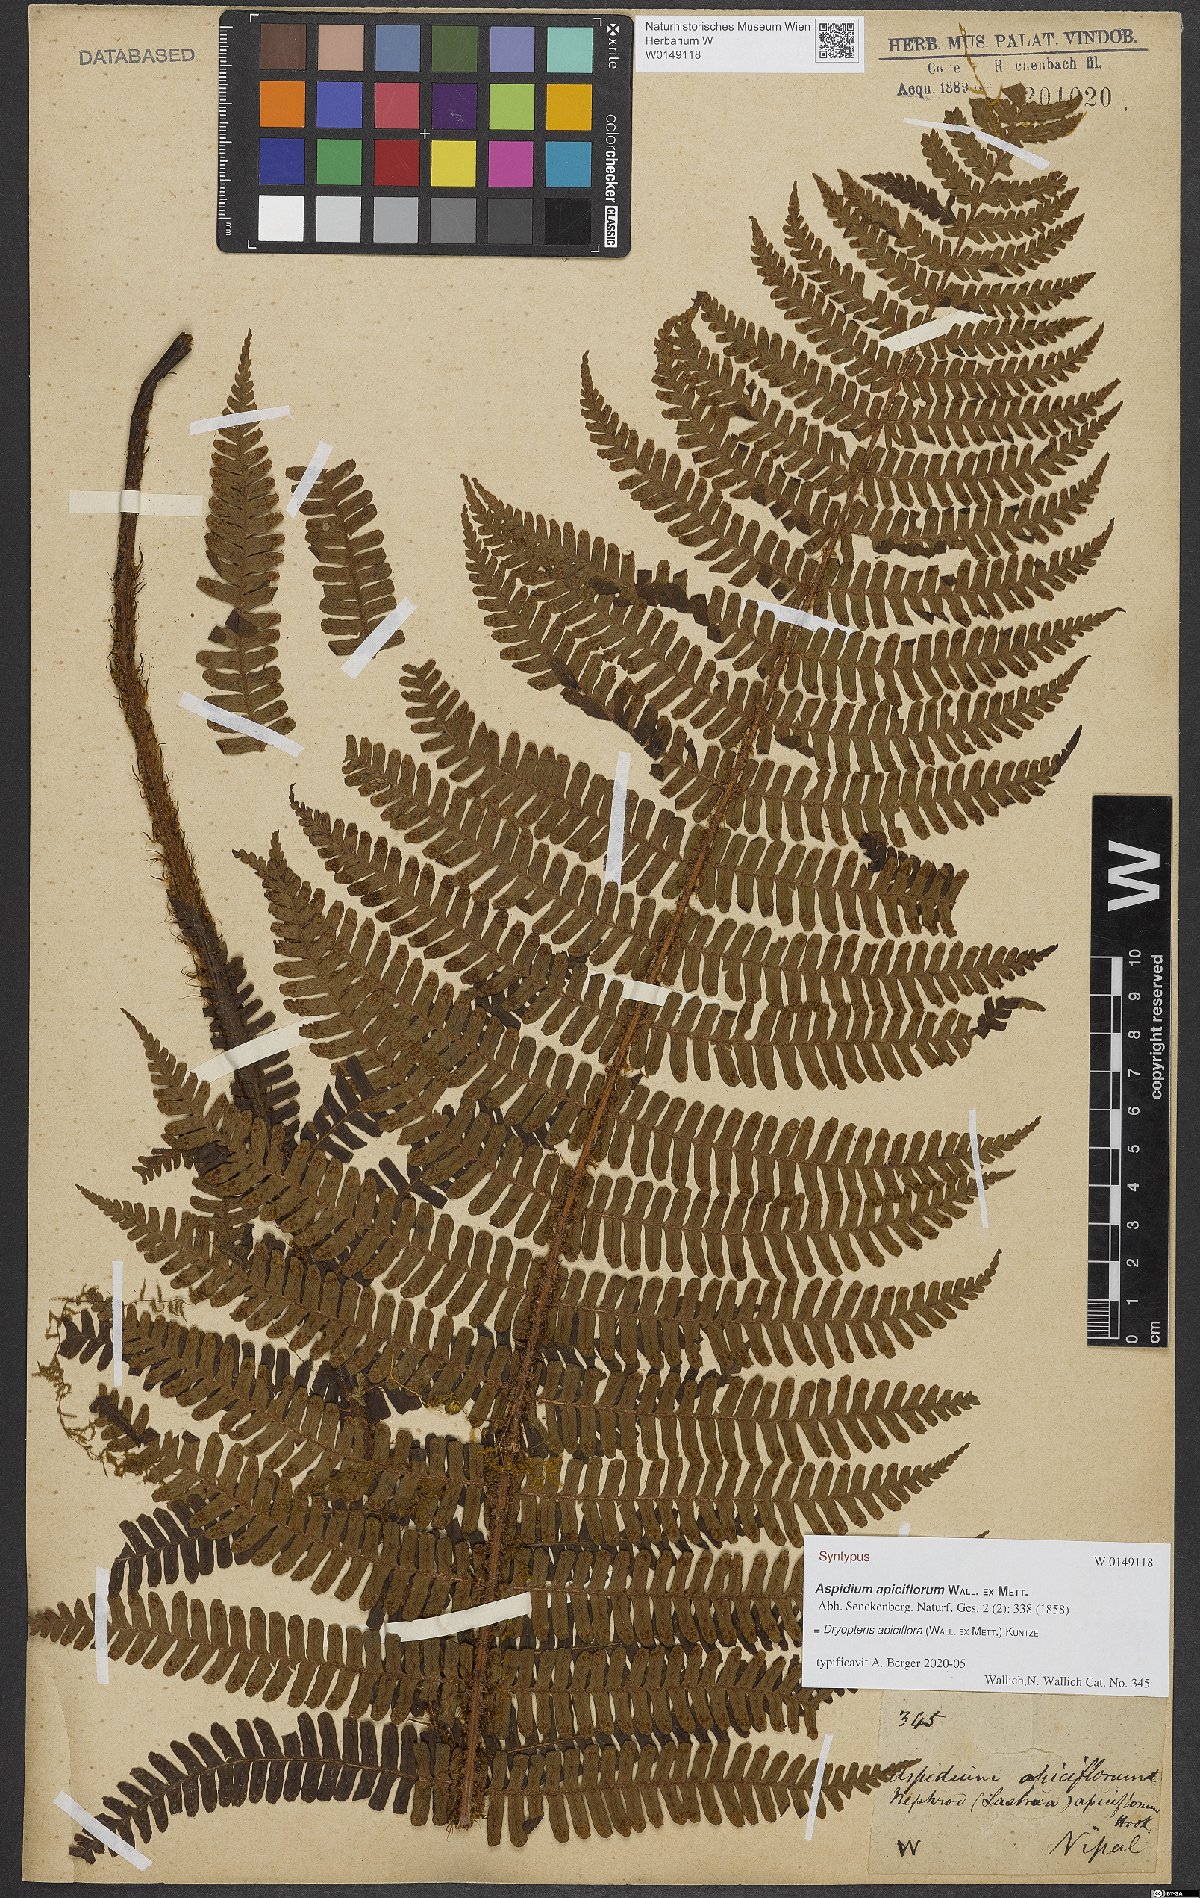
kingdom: Plantae
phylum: Tracheophyta
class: Polypodiopsida
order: Polypodiales
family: Dryopteridaceae
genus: Dryopteris
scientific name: Dryopteris apiciflora
